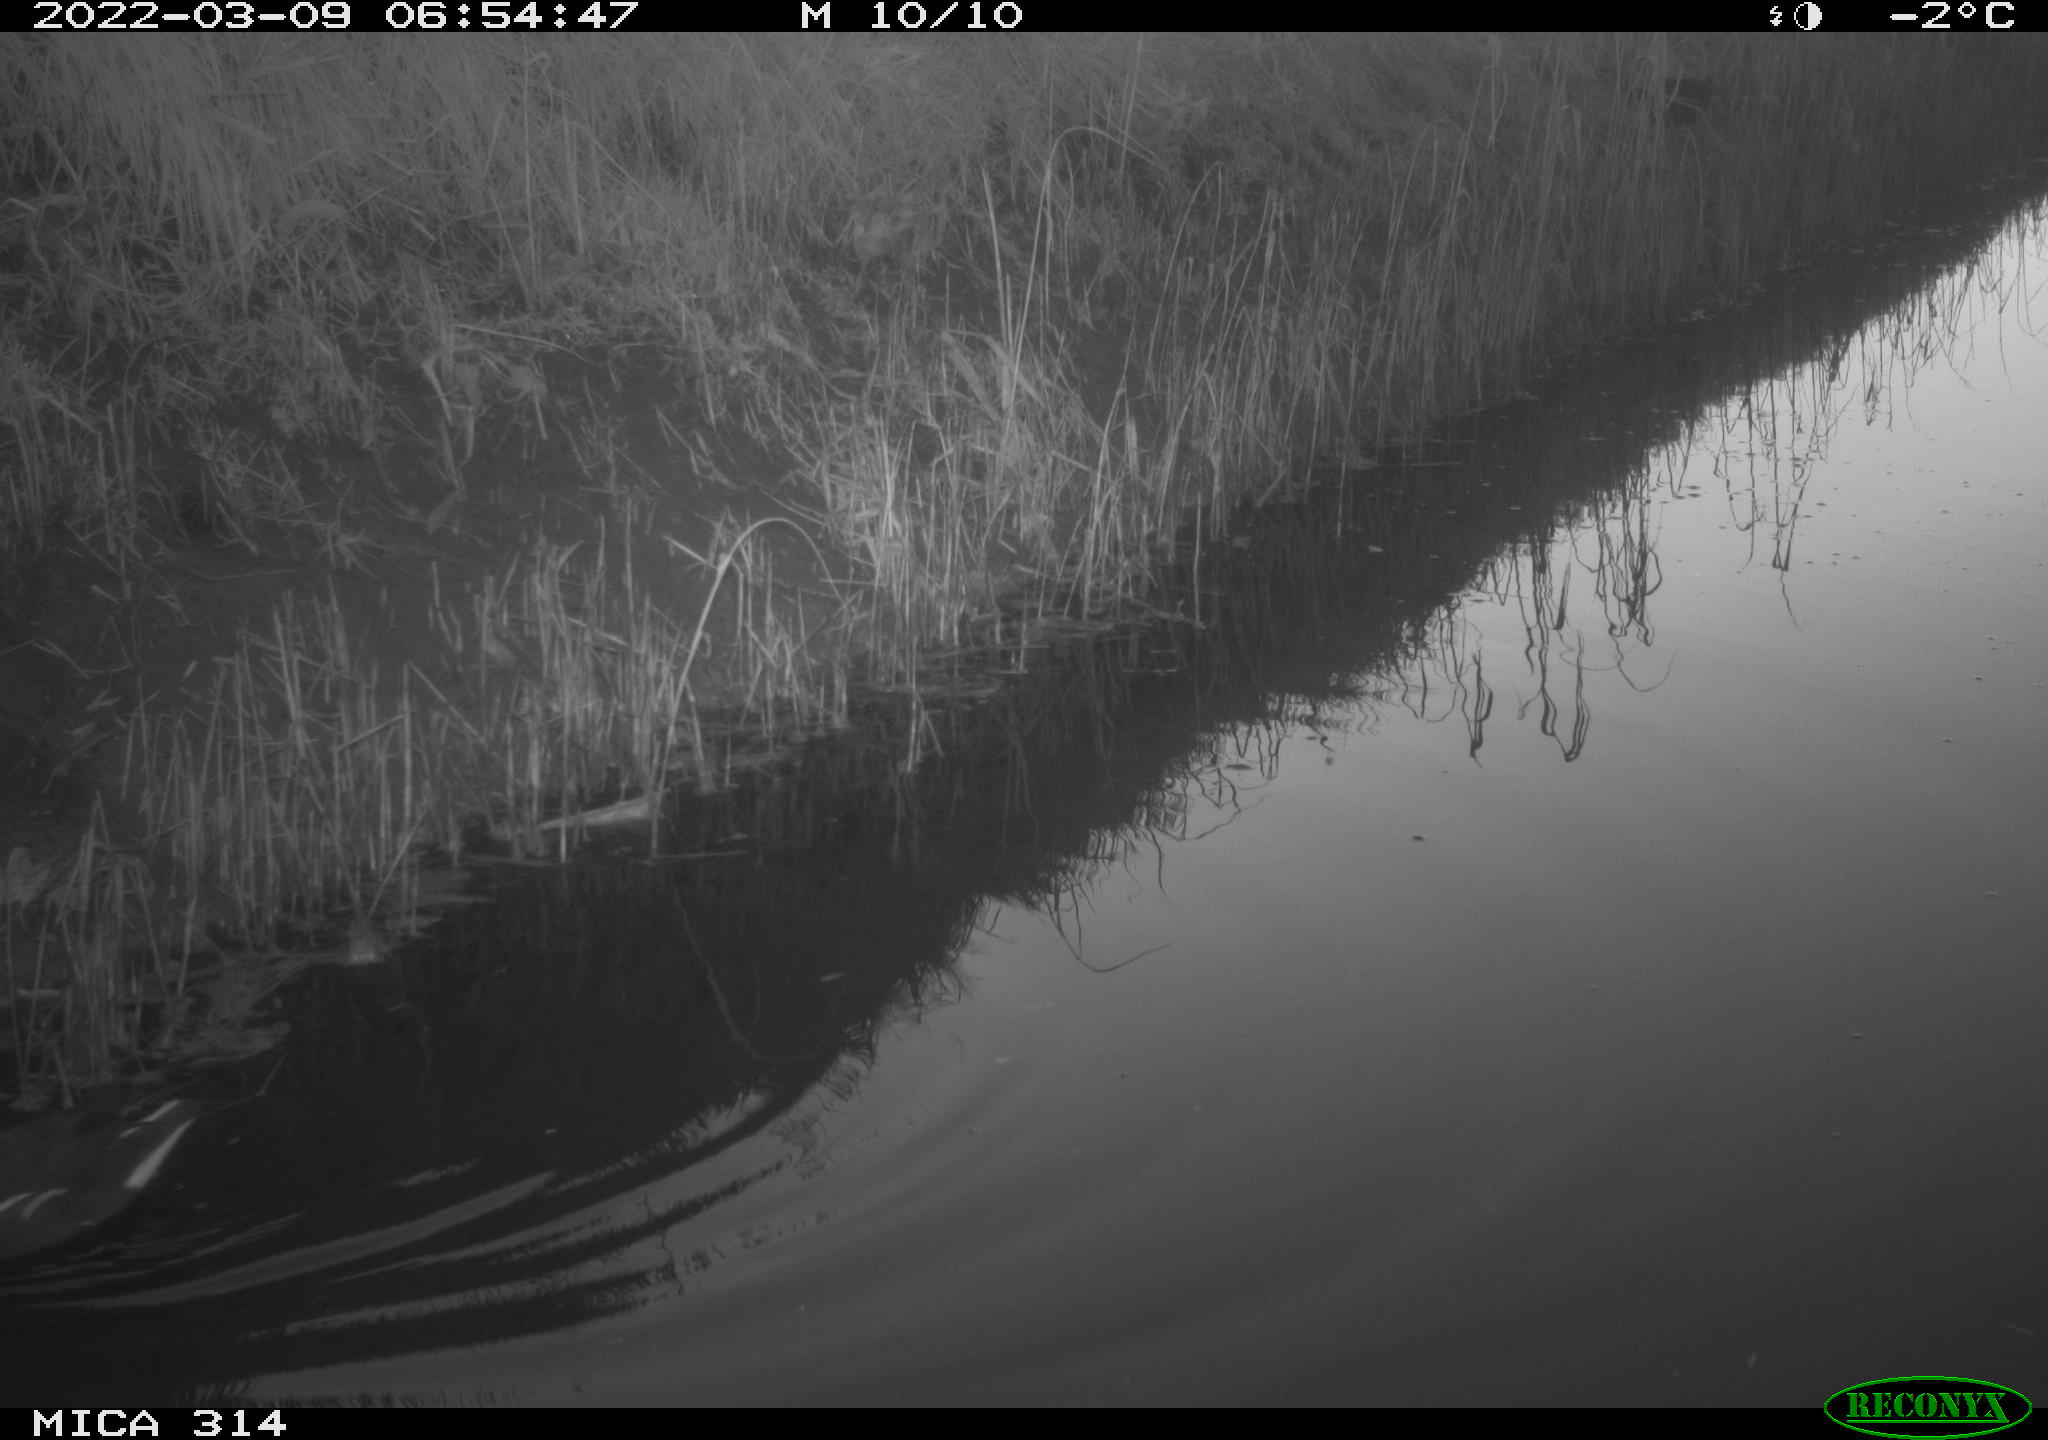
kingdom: Animalia
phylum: Chordata
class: Aves
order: Gruiformes
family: Rallidae
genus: Gallinula
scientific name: Gallinula chloropus
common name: Common moorhen
